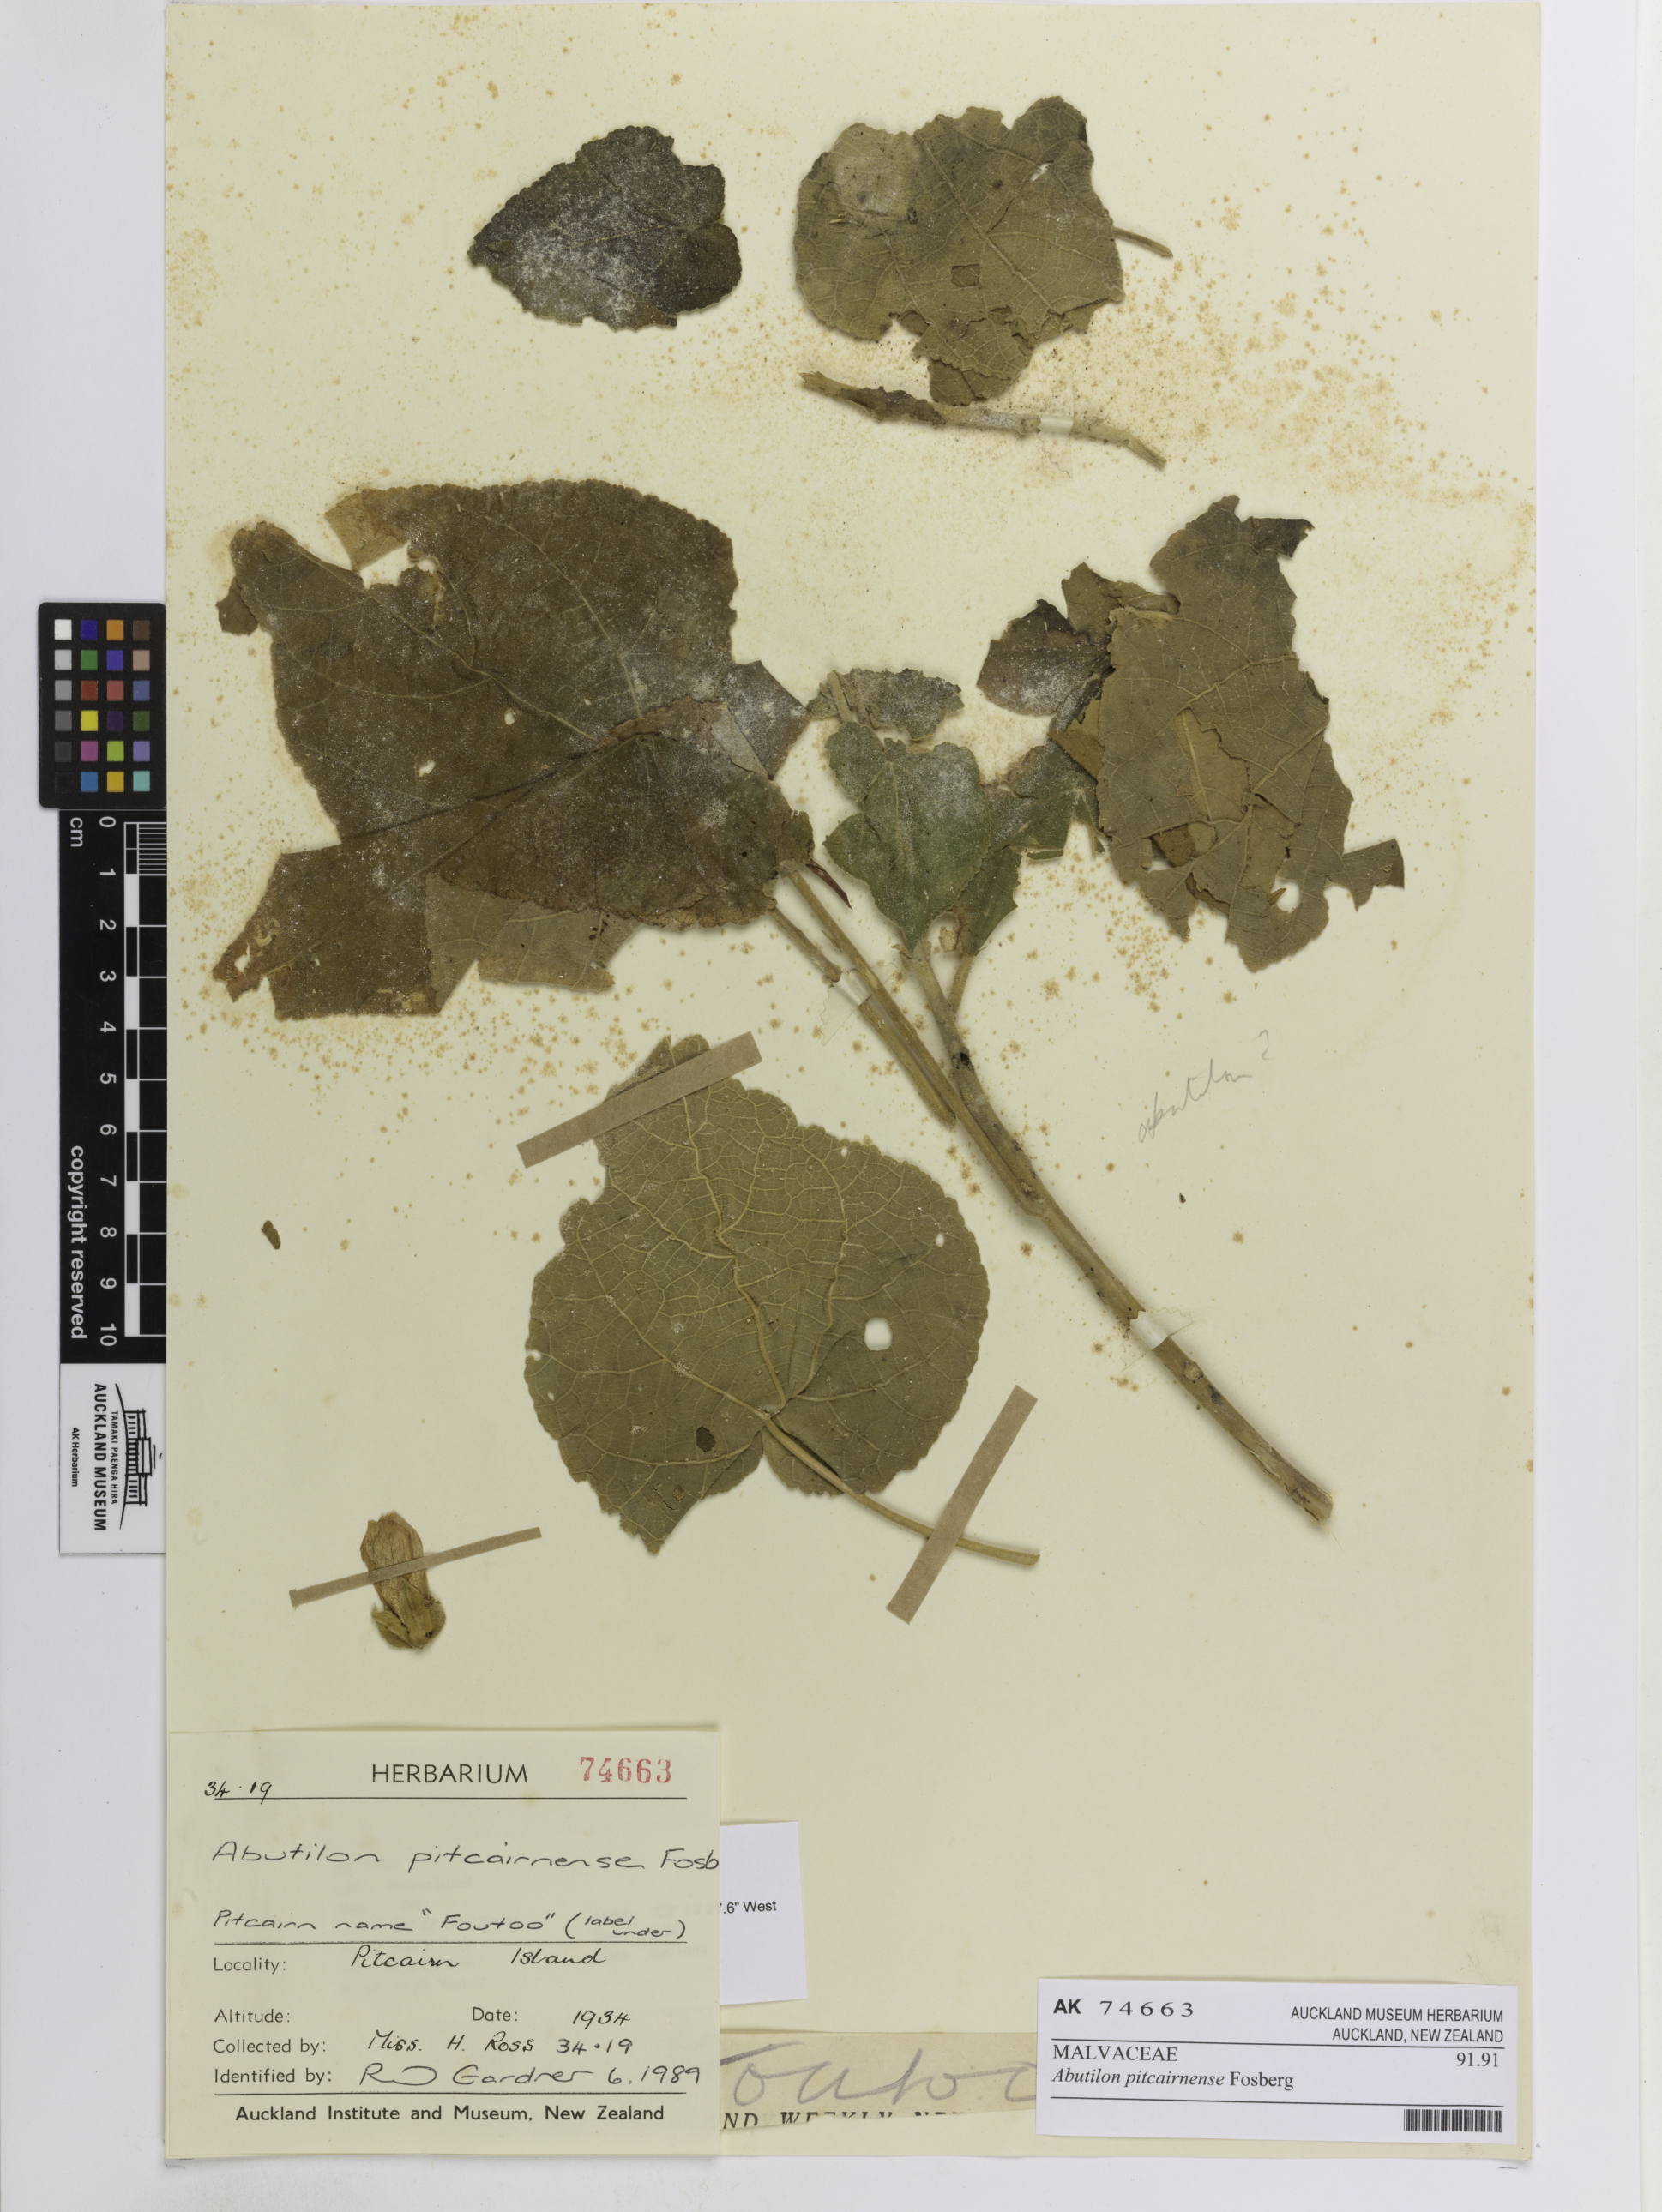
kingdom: Plantae
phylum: Tracheophyta
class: Magnoliopsida
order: Malvales
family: Malvaceae
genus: Abutilon
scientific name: Abutilon pitcairnense
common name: Yellow fatu
